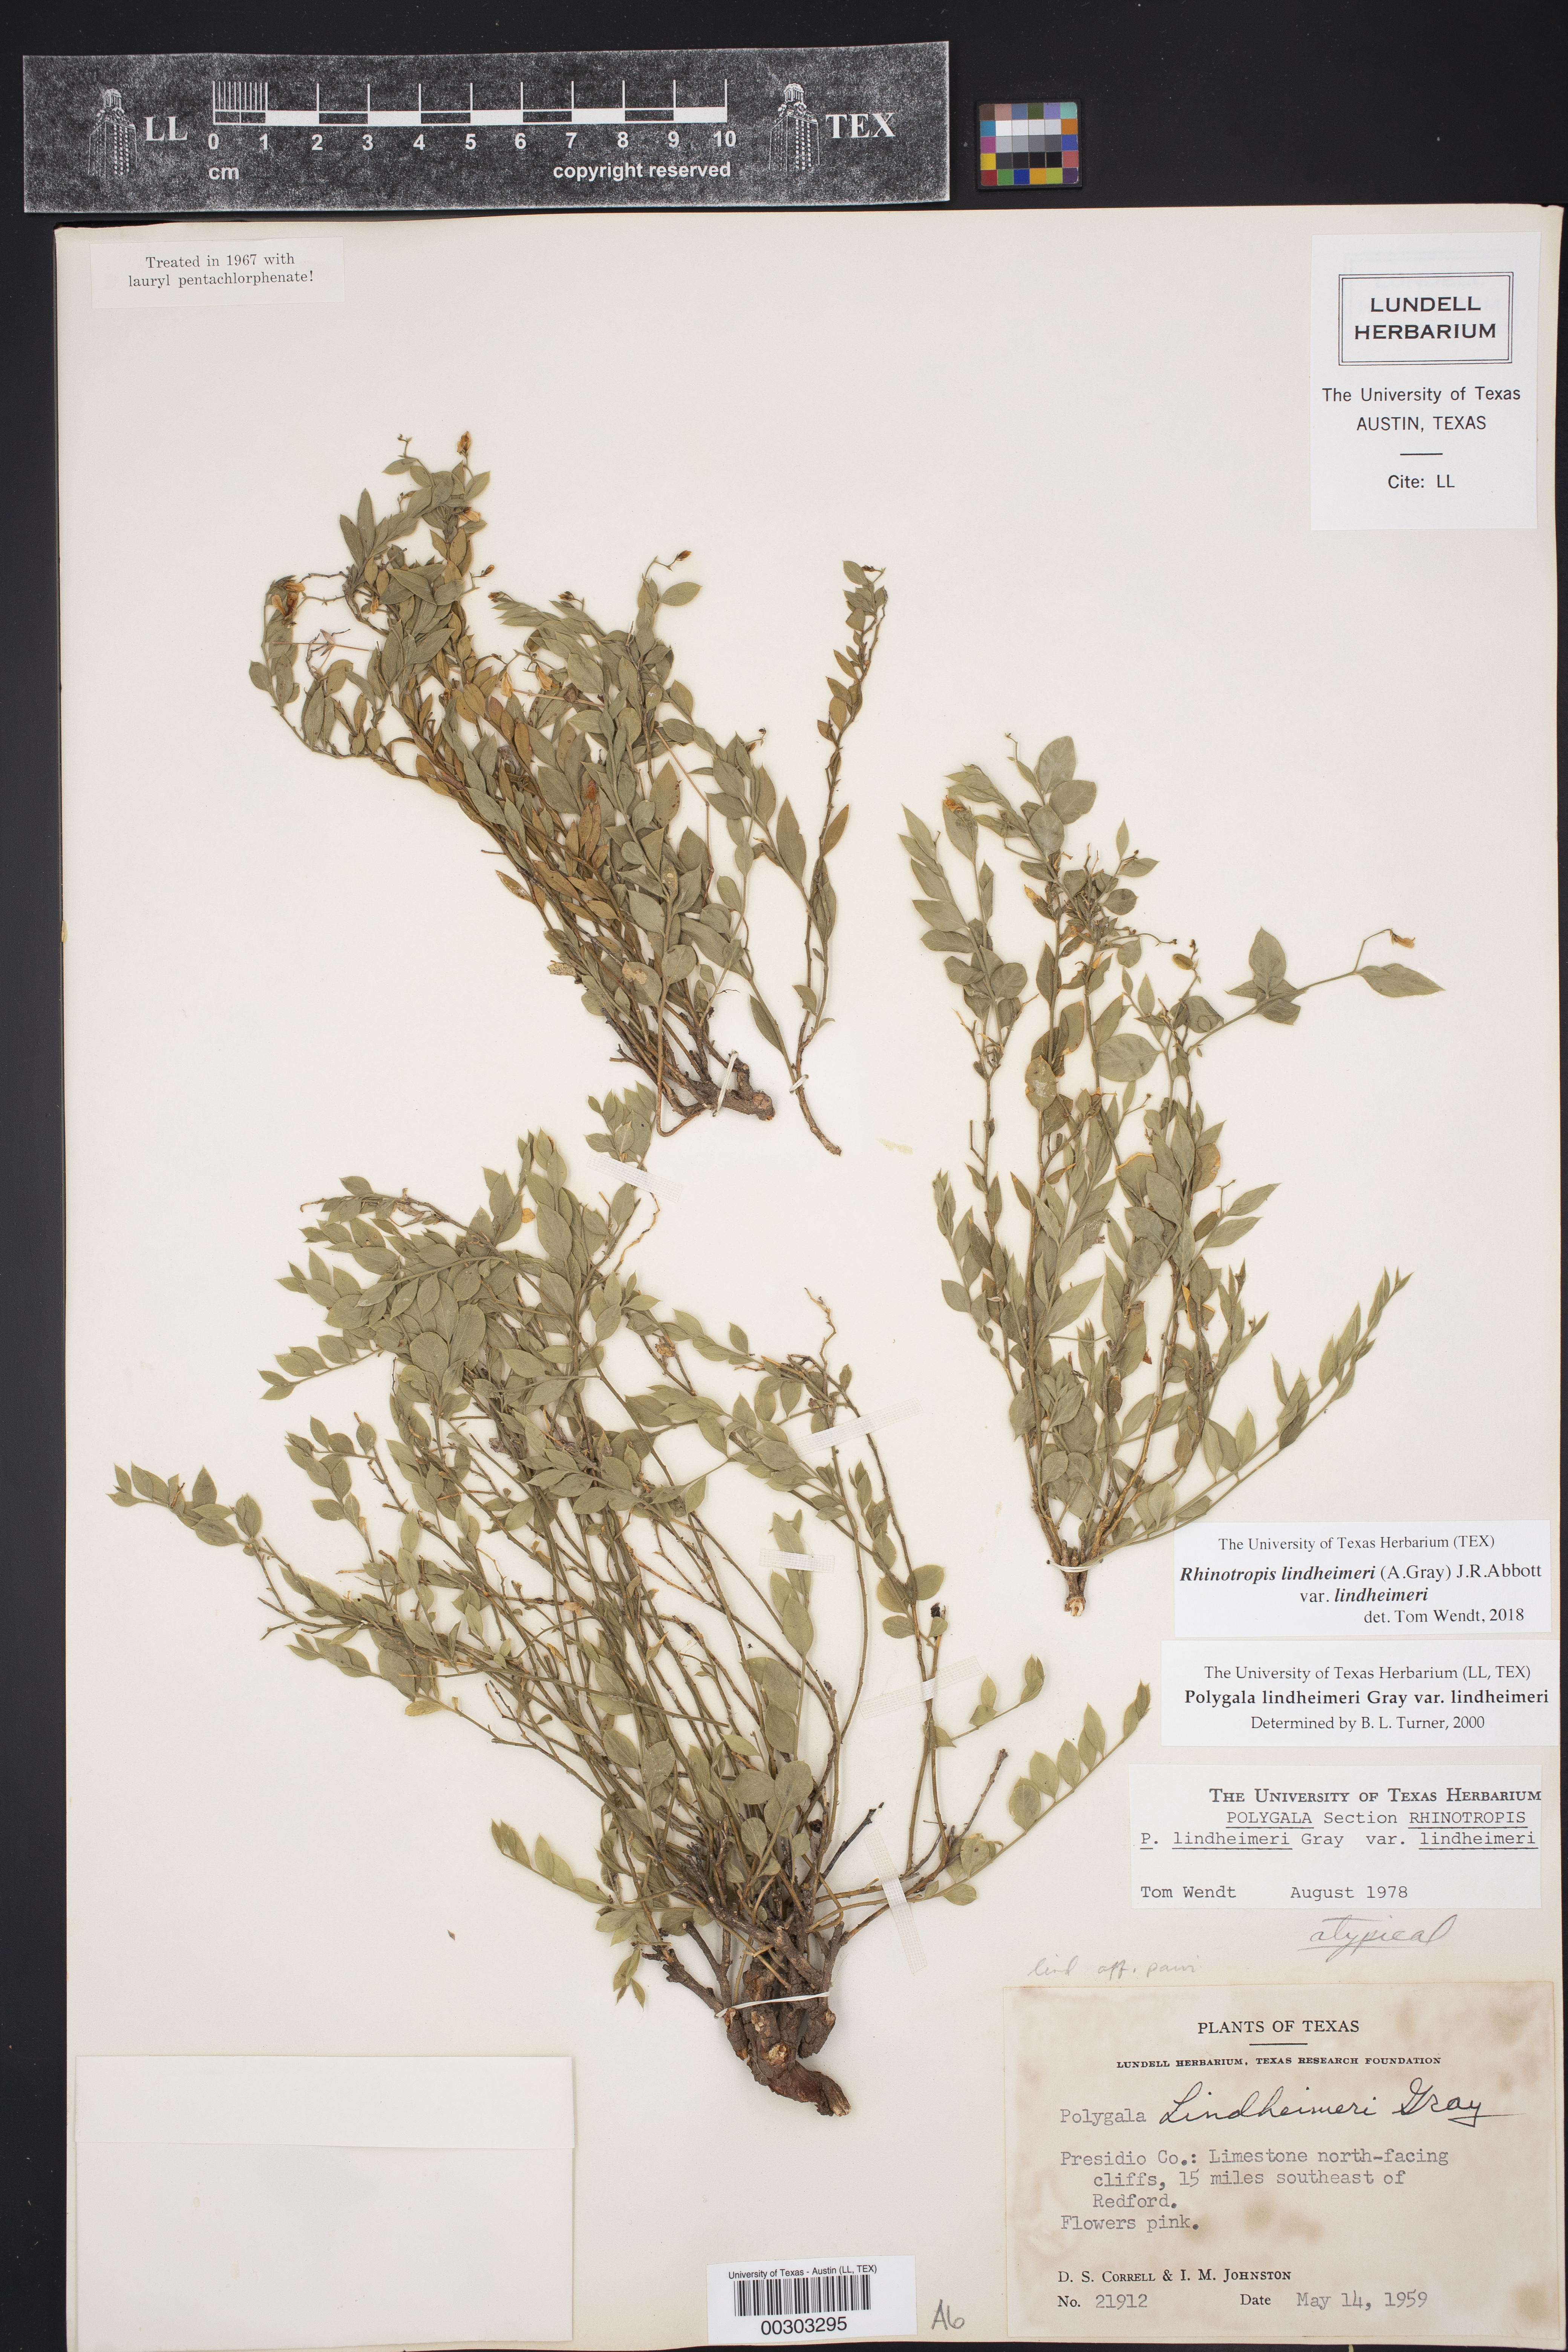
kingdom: Plantae
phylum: Tracheophyta
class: Magnoliopsida
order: Fabales
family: Polygalaceae
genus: Rhinotropis
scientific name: Rhinotropis lindheimeri
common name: Shrubby milkwort
